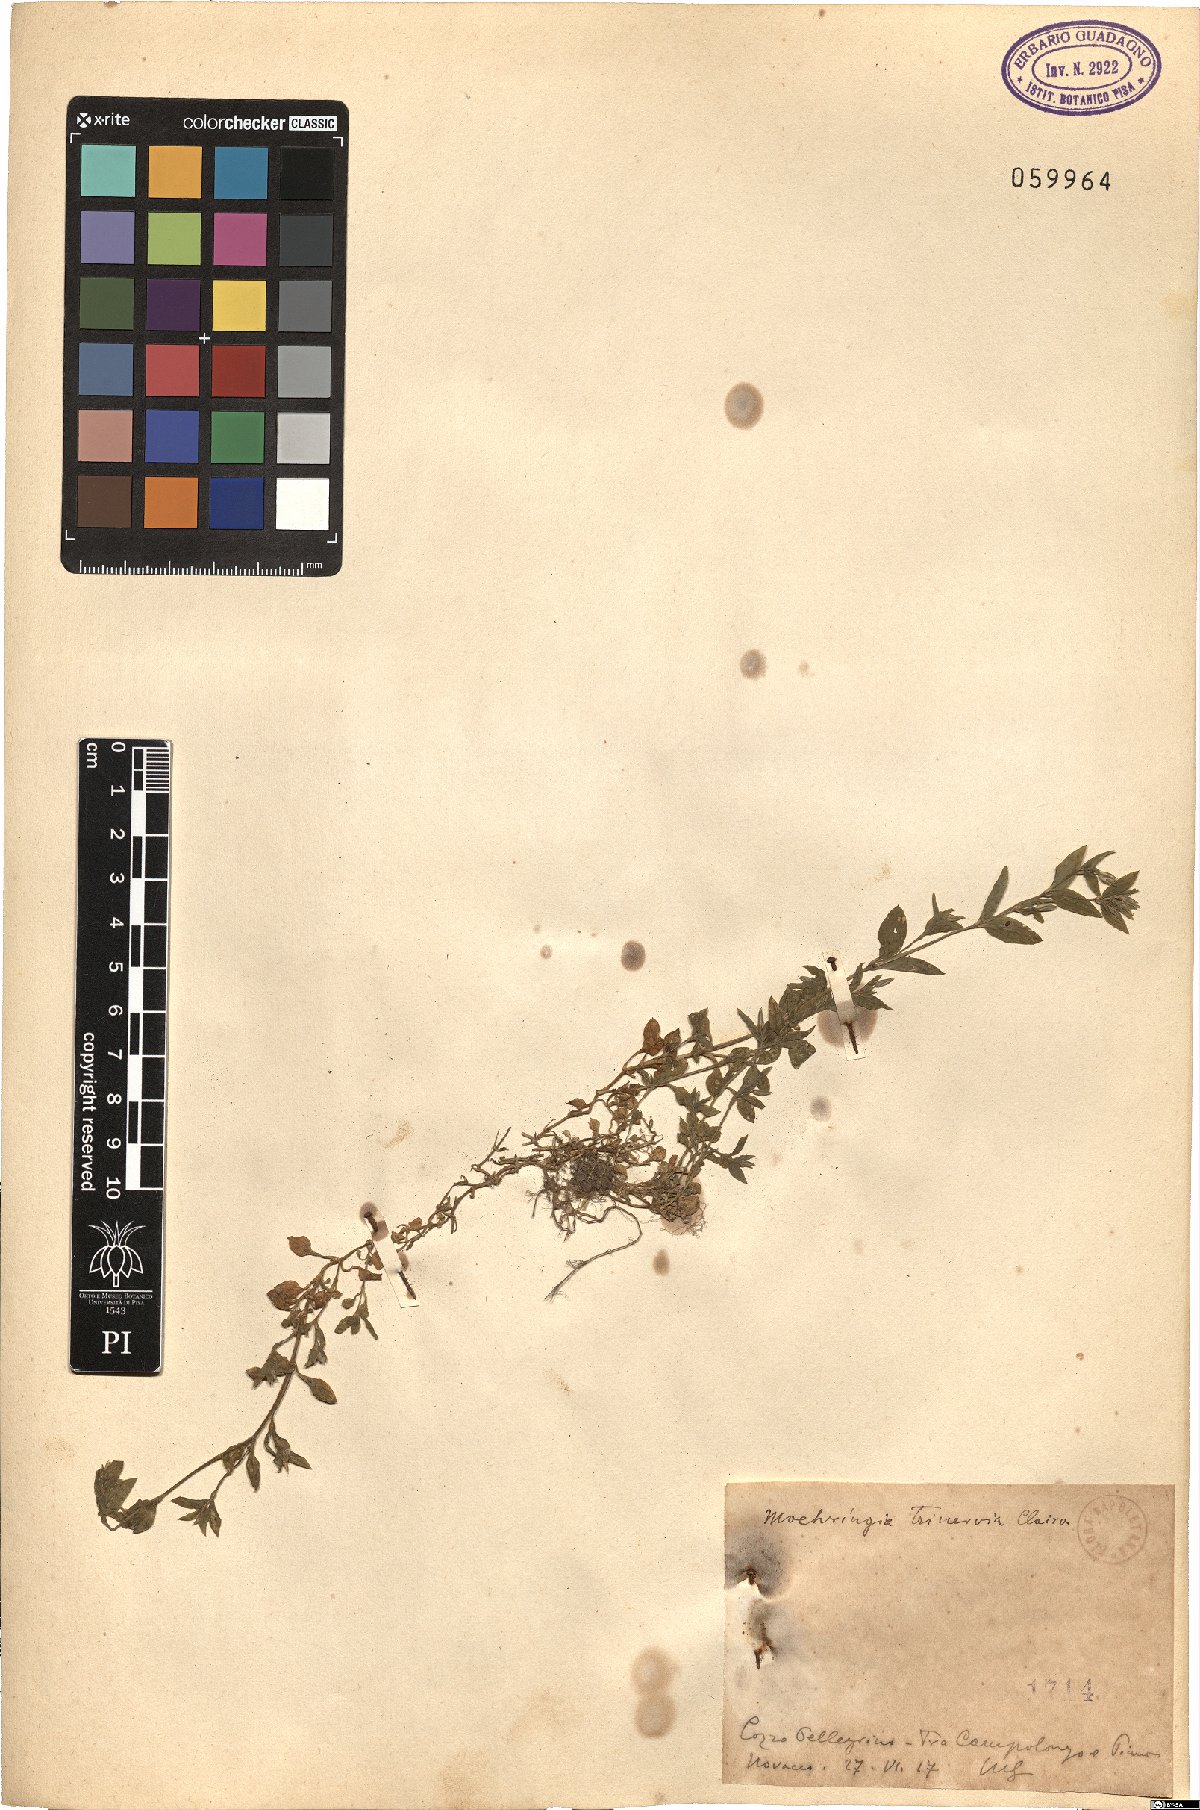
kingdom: Plantae
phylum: Tracheophyta
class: Magnoliopsida
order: Caryophyllales
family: Caryophyllaceae
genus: Moehringia
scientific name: Moehringia trinervia
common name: Three-nerved sandwort
